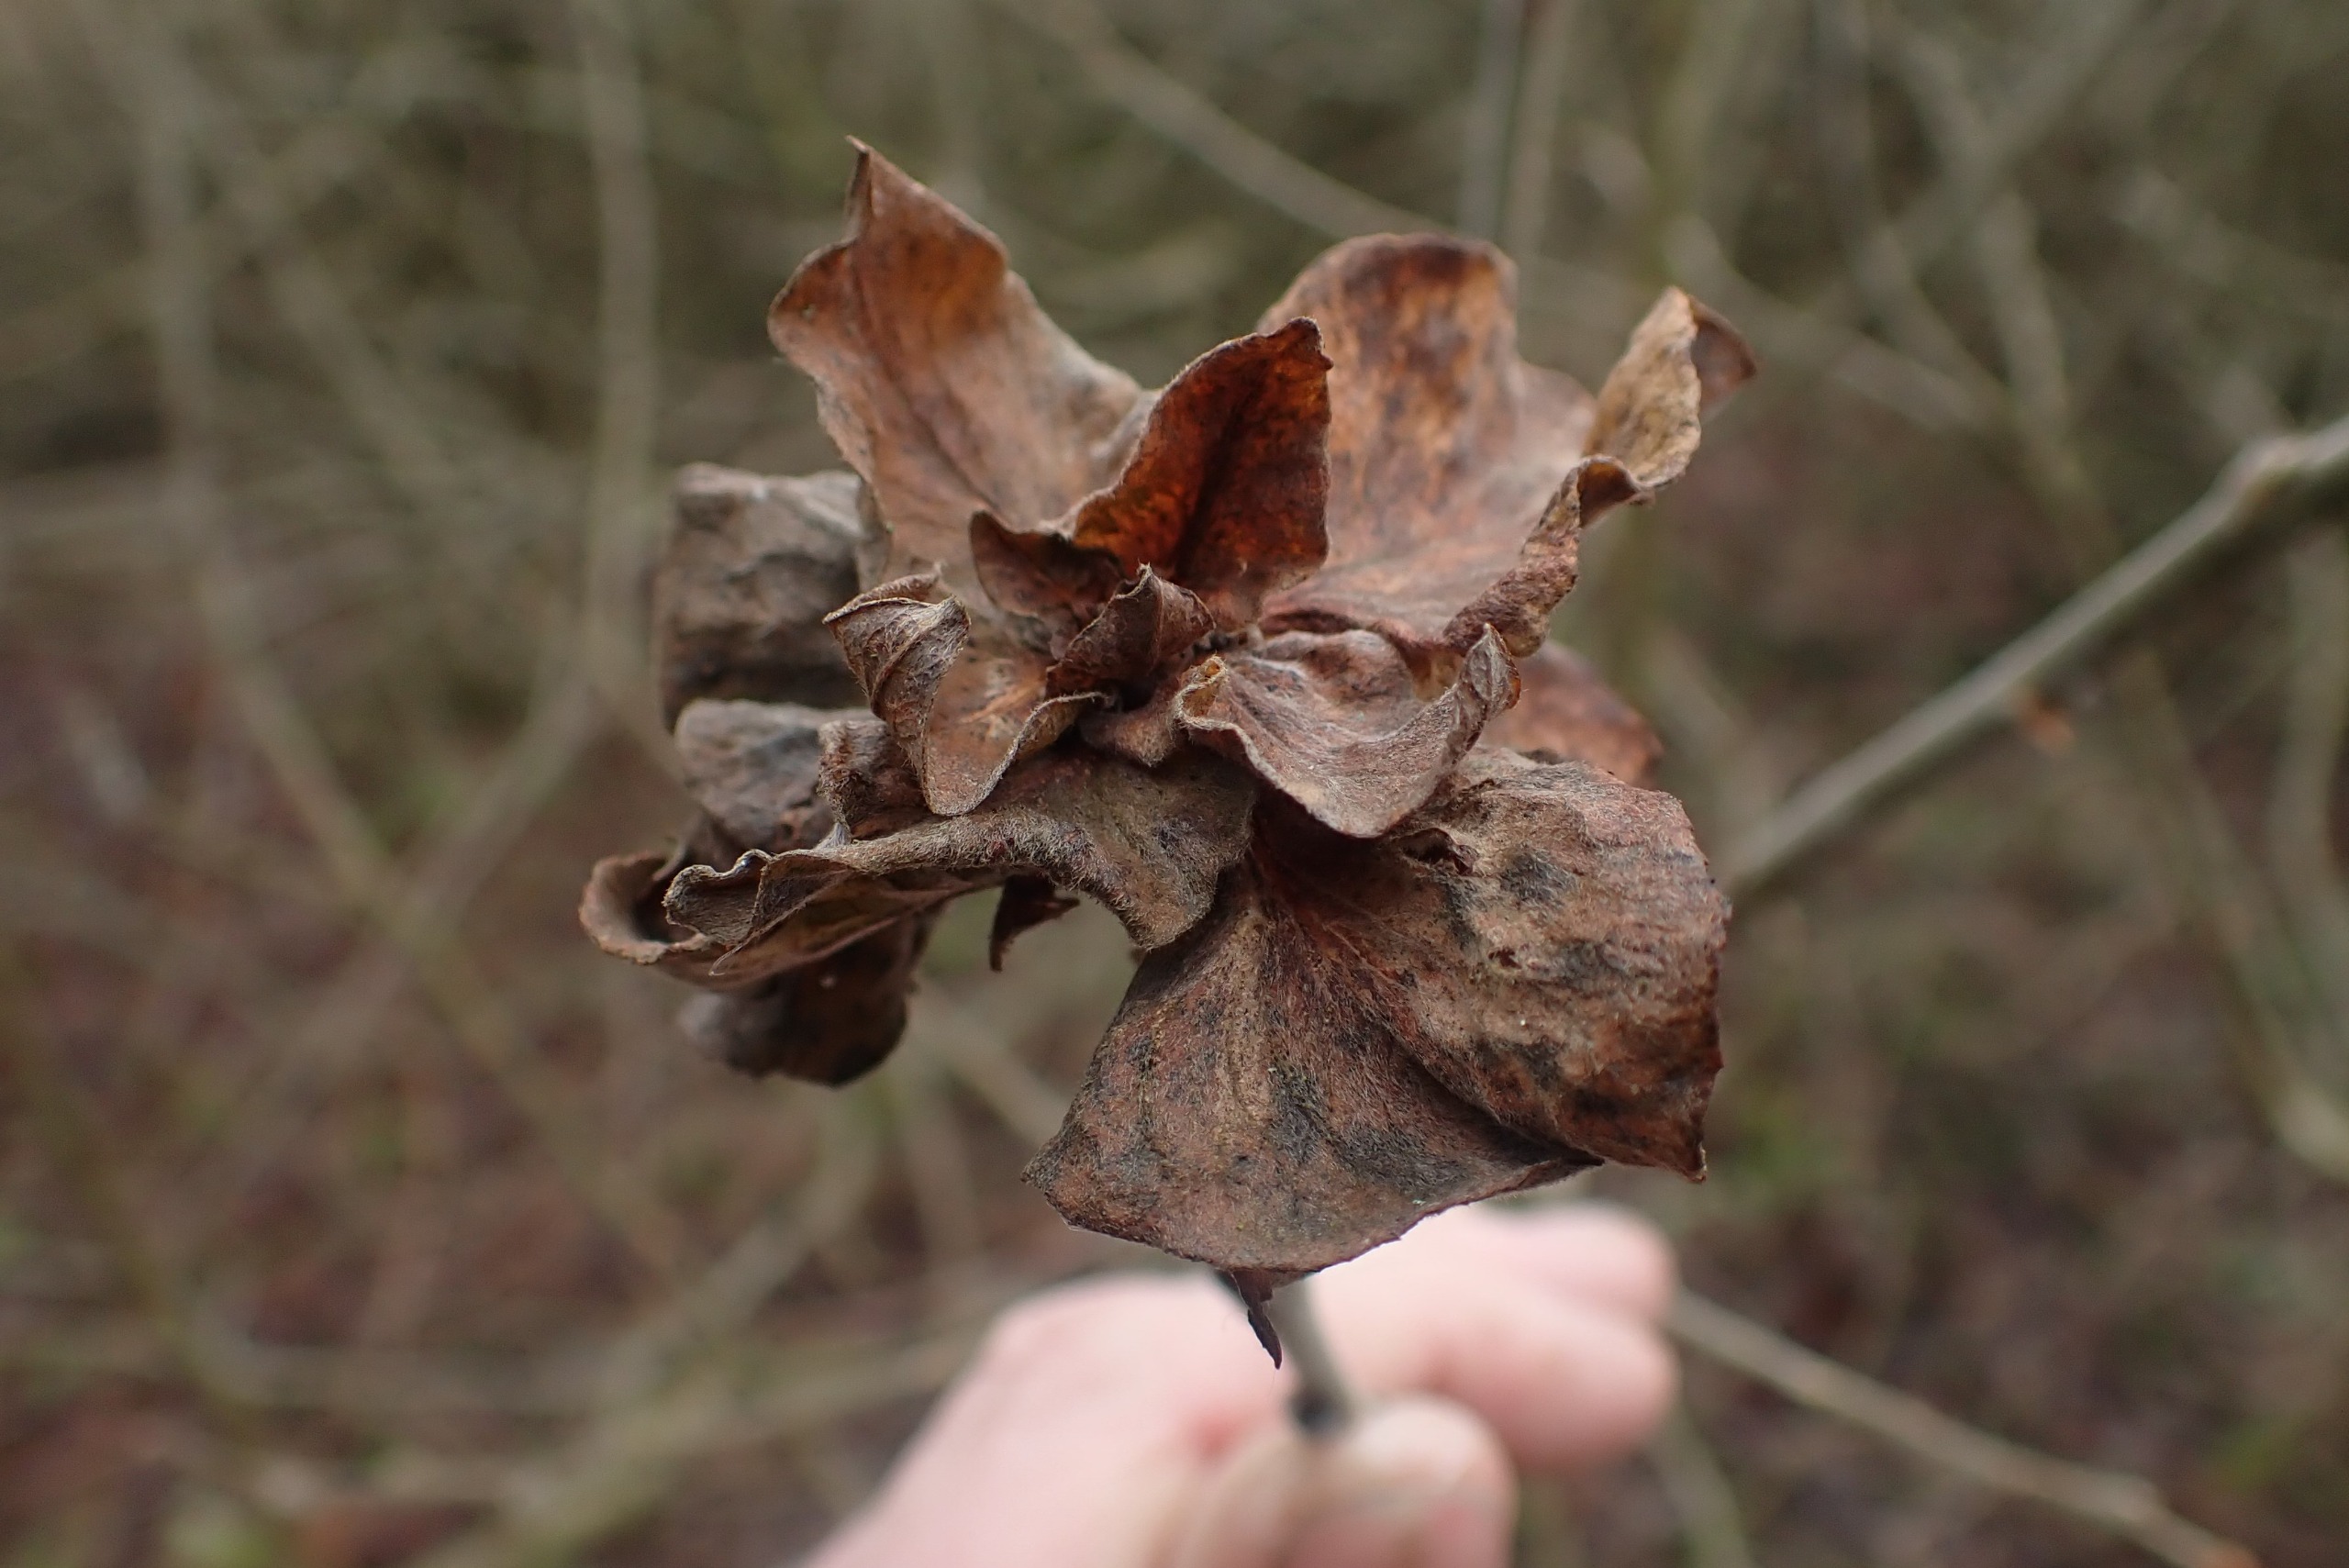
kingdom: Animalia
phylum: Arthropoda
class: Insecta
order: Diptera
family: Cecidomyiidae
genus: Rabdophaga
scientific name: Rabdophaga rosaria
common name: Pilerosetgalmyg
